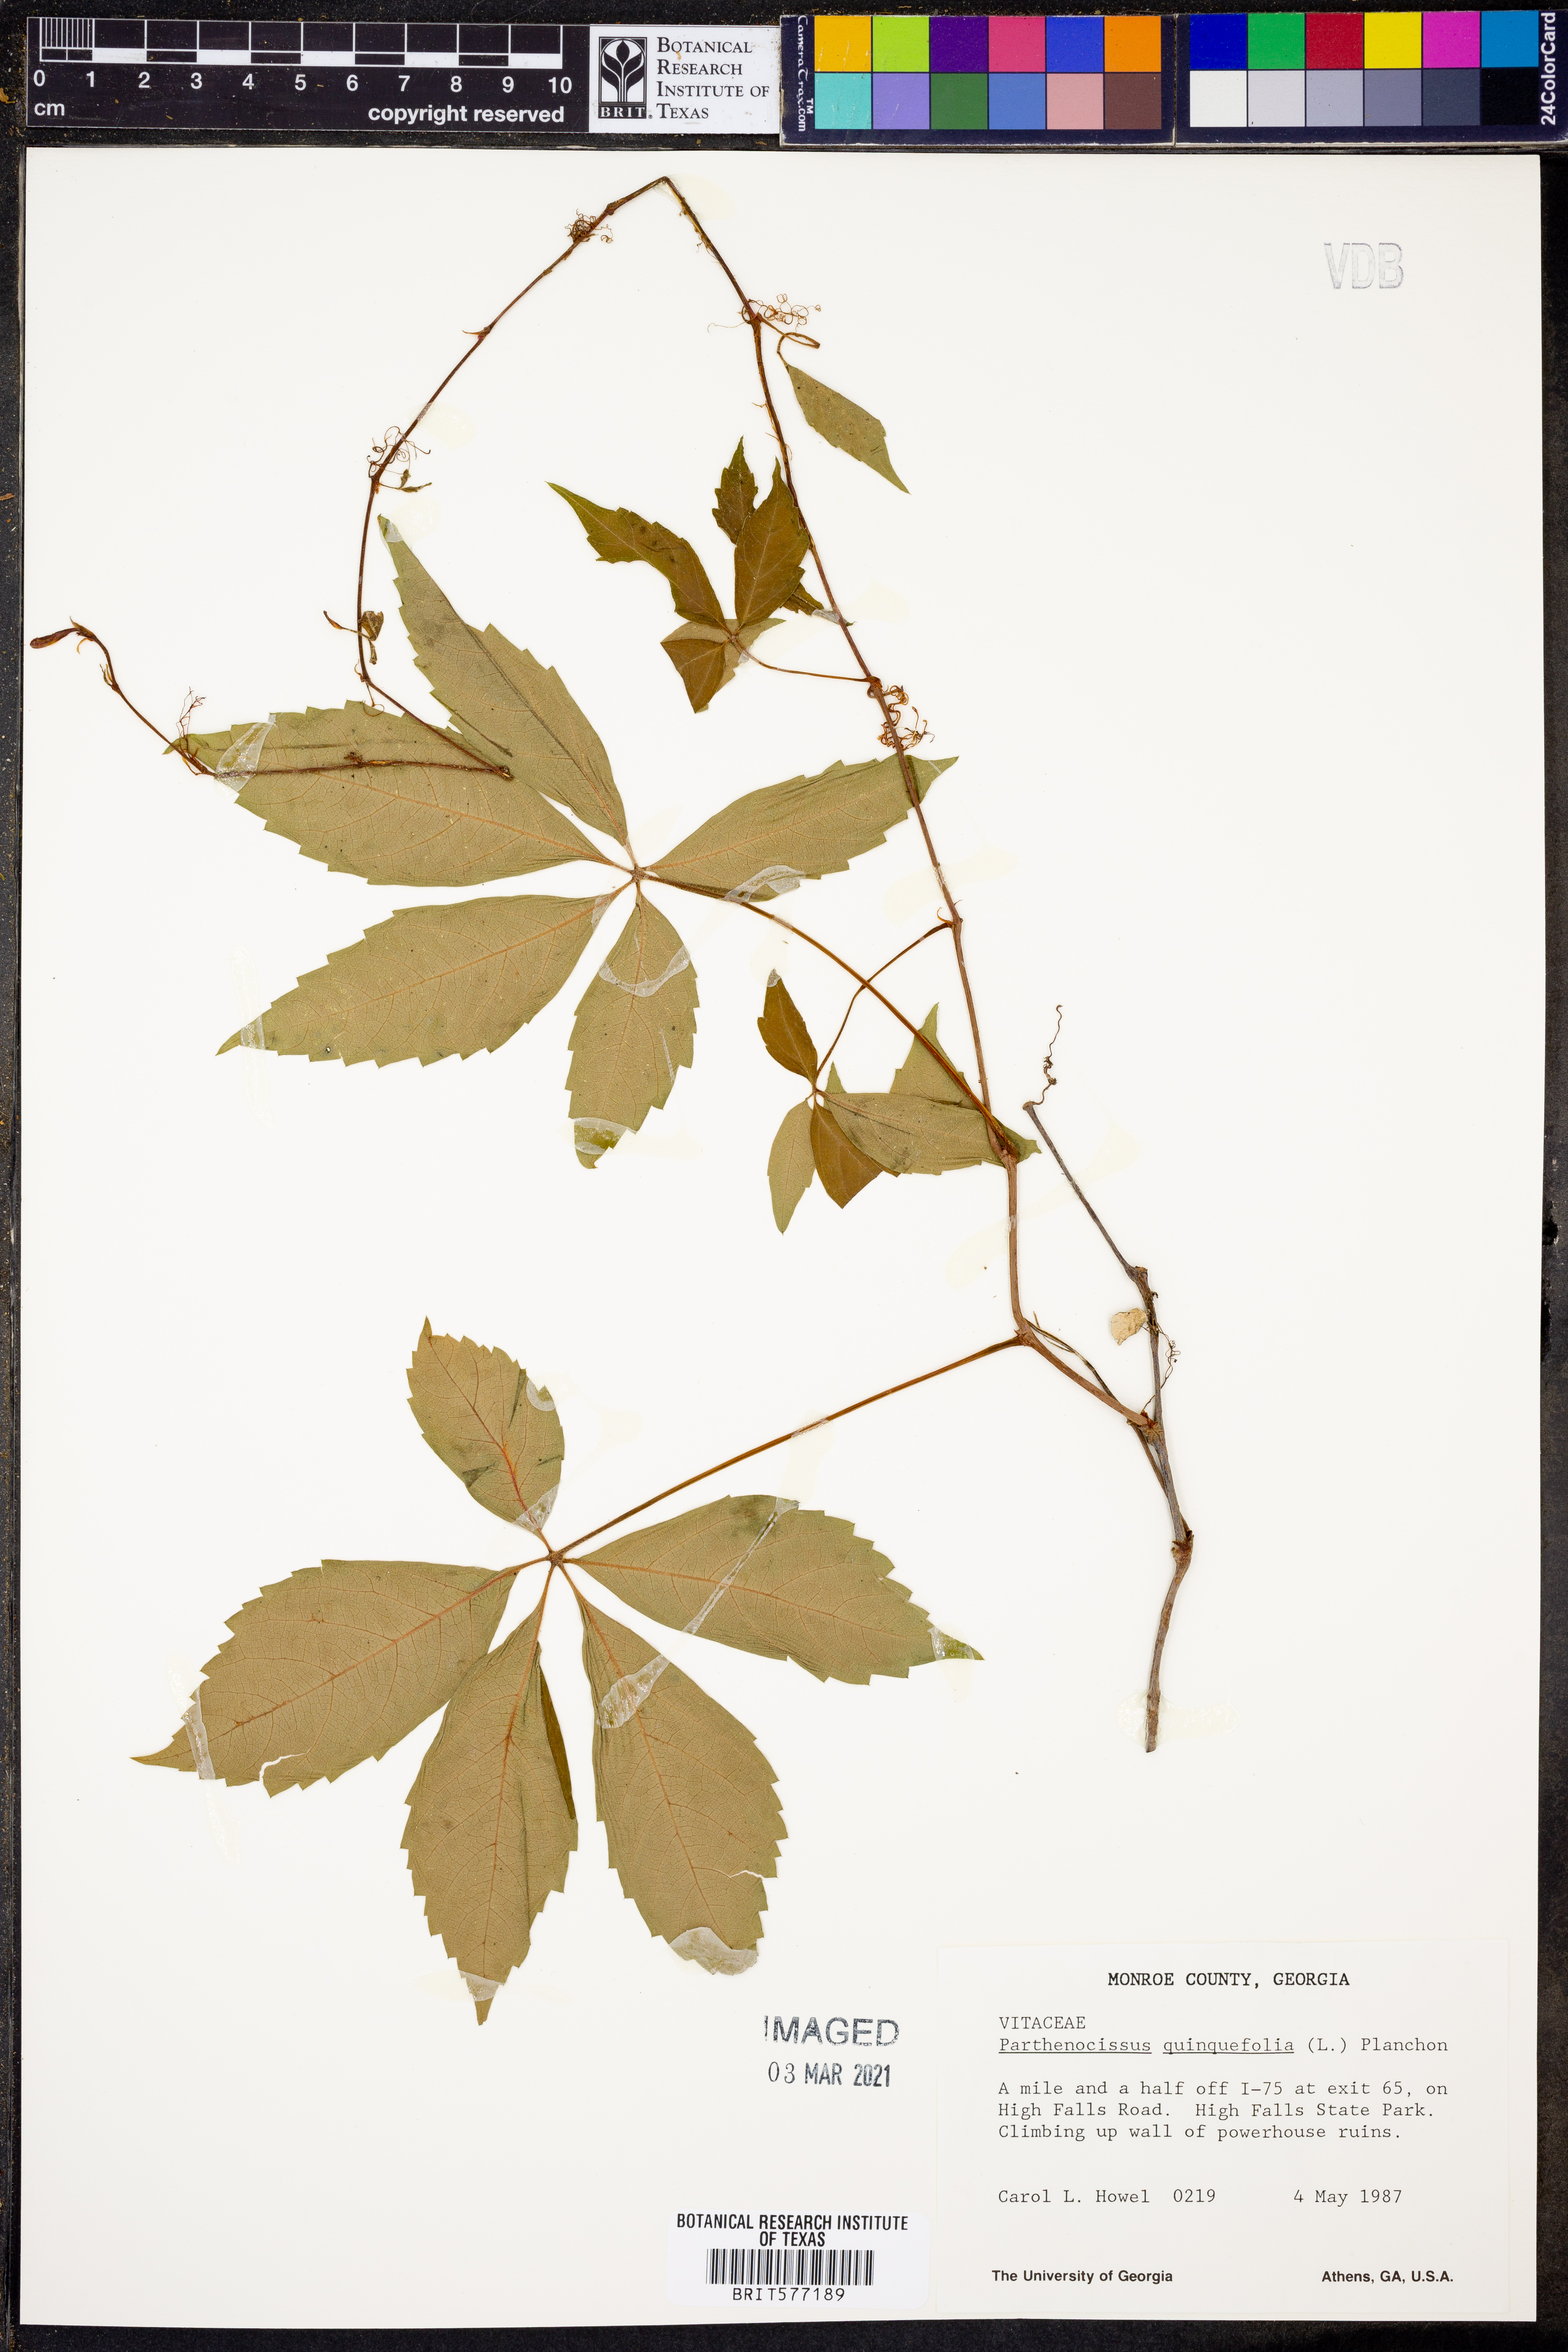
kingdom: Plantae
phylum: Tracheophyta
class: Magnoliopsida
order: Vitales
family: Vitaceae
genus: Parthenocissus
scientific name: Parthenocissus quinquefolia
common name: Virginia-creeper
